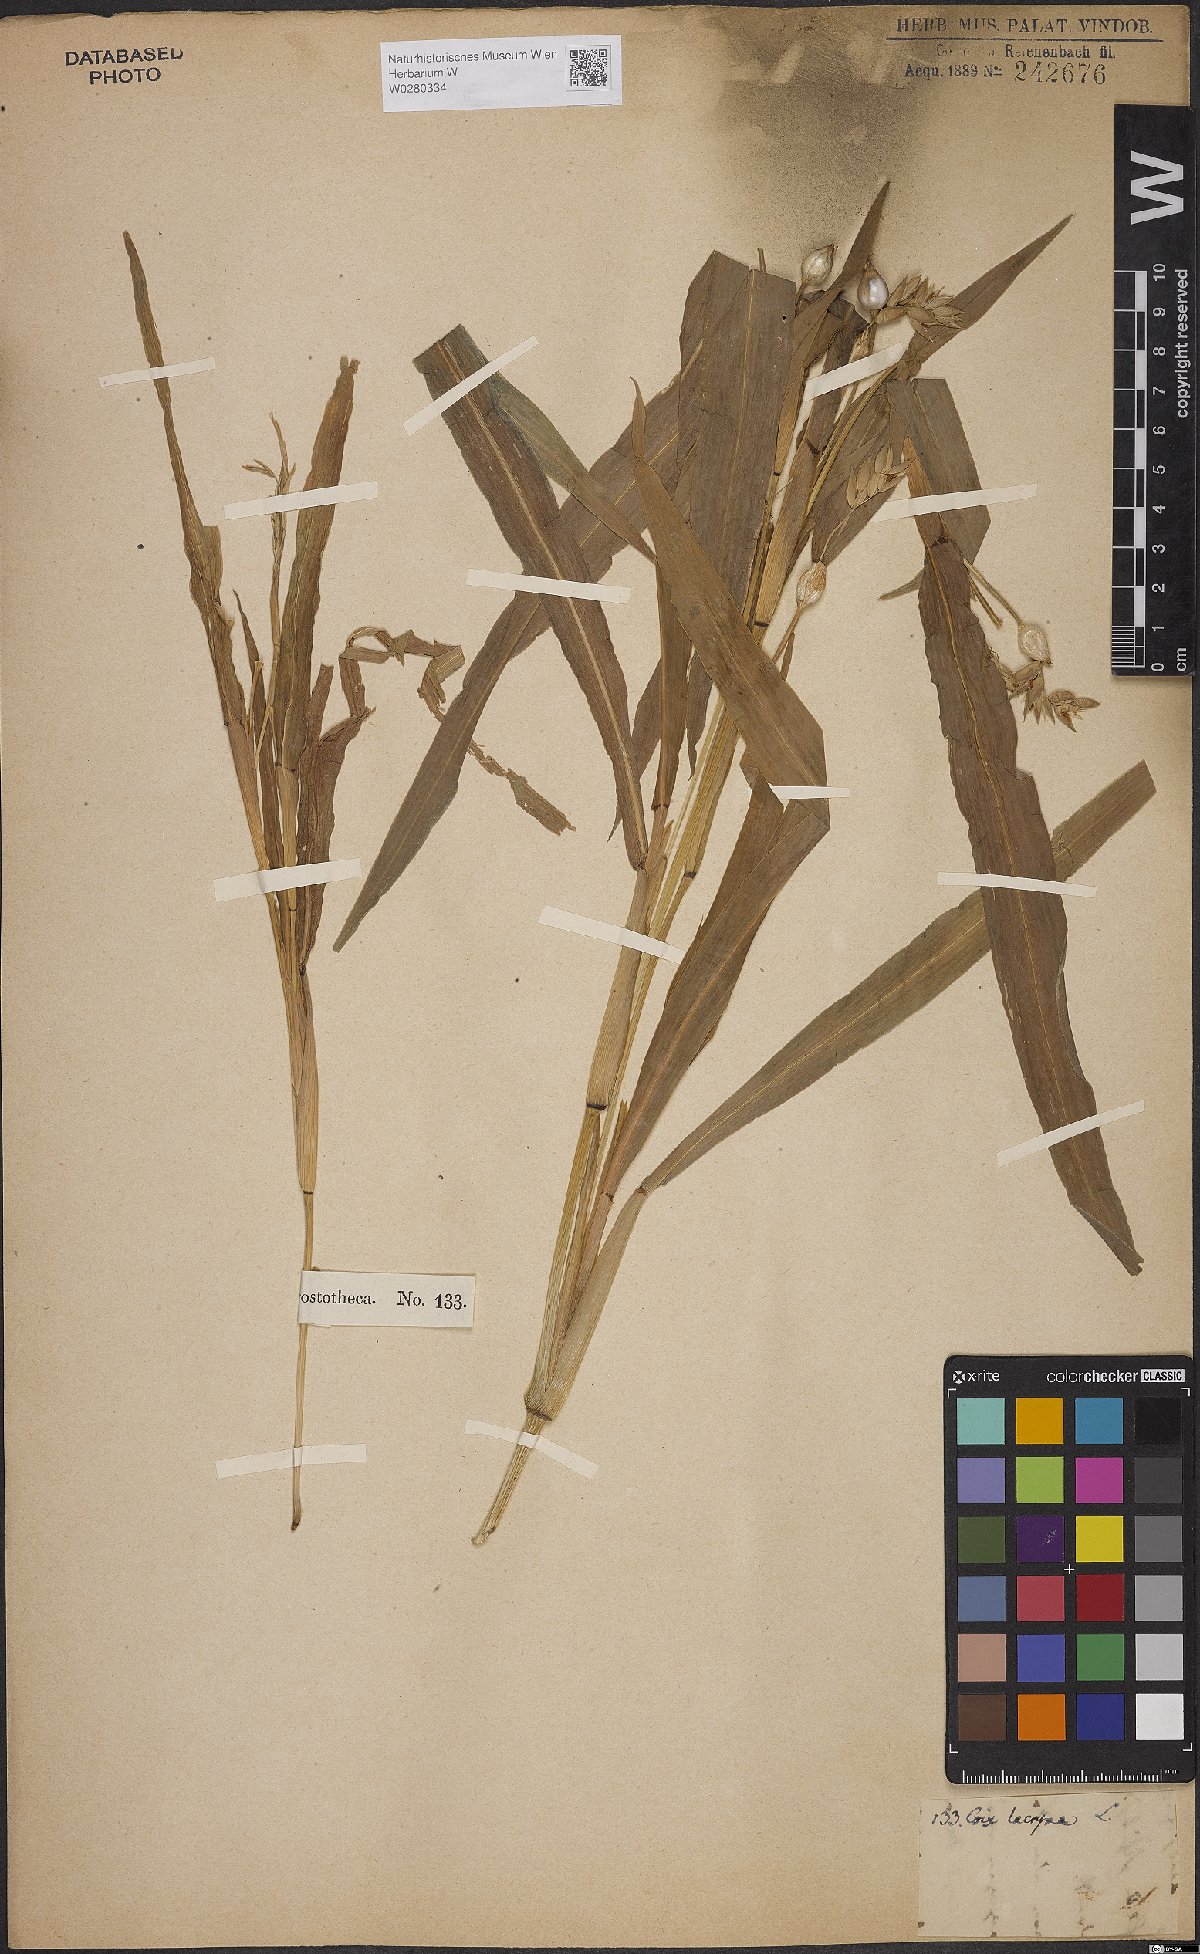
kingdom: Plantae
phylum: Tracheophyta
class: Liliopsida
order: Poales
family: Poaceae
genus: Coix
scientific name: Coix lacryma-jobi
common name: Job's tears
